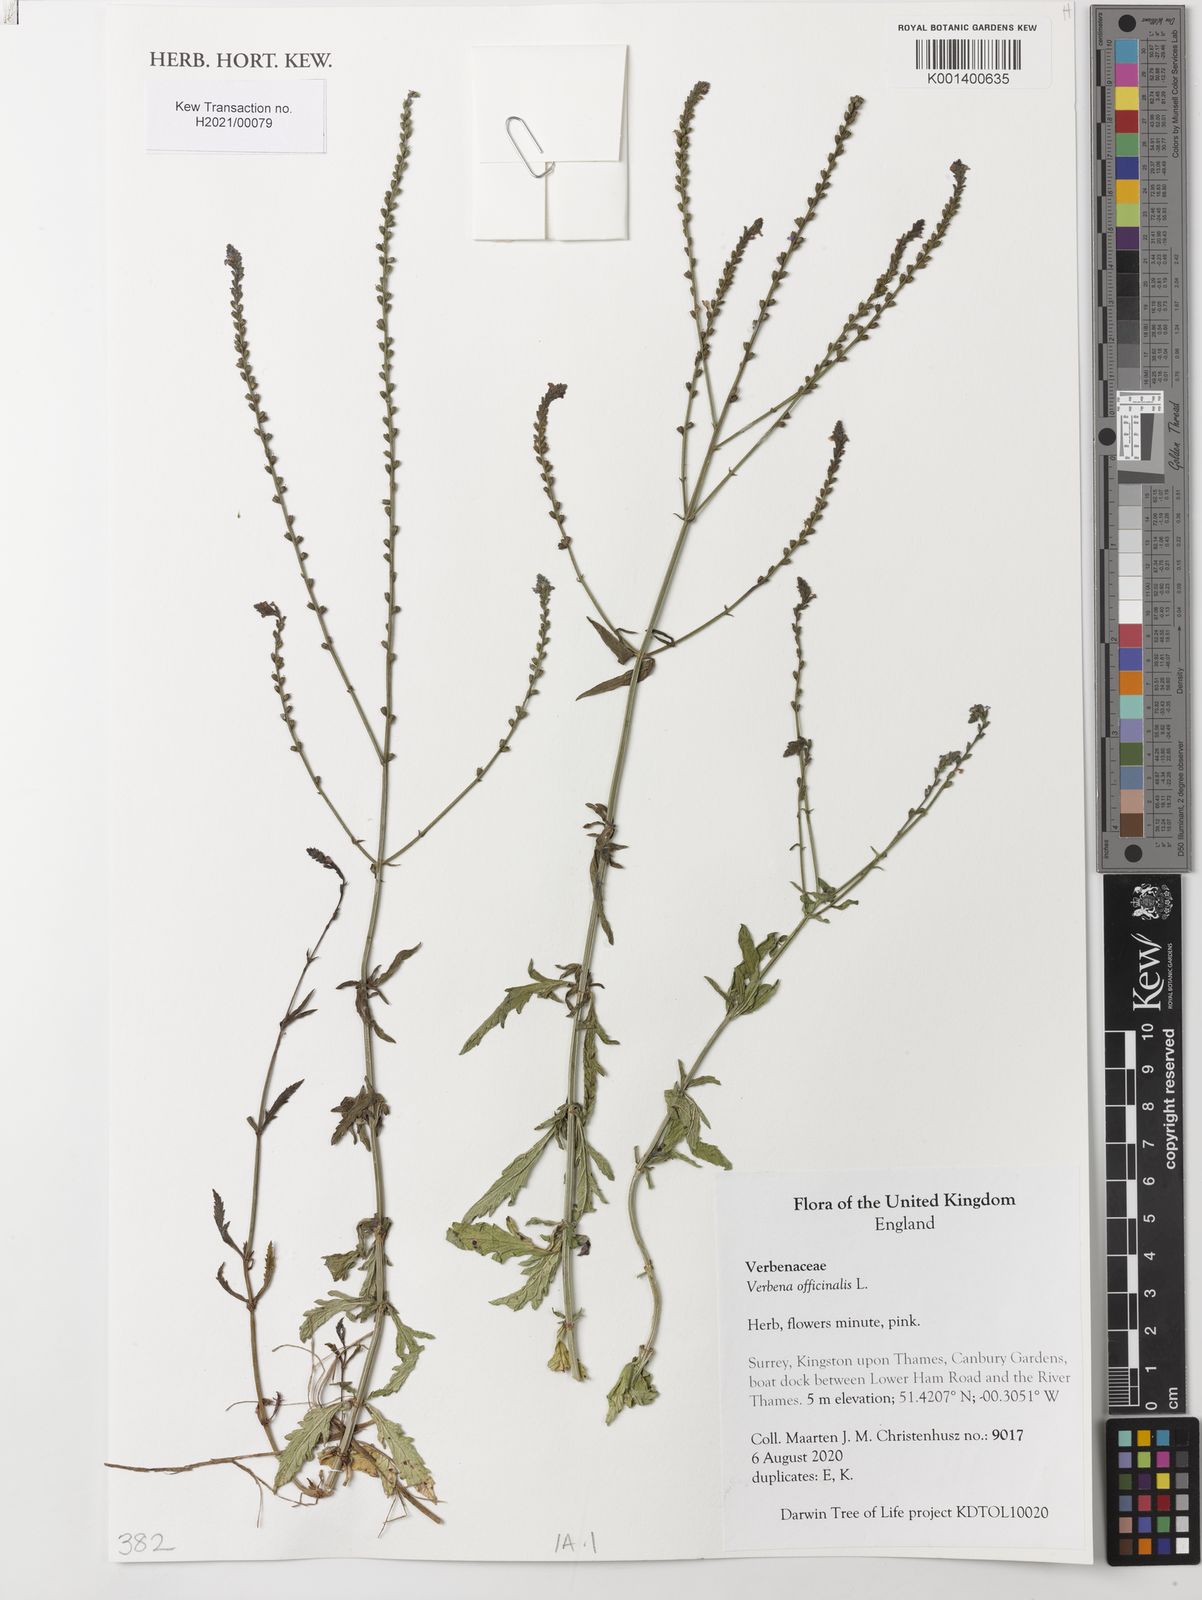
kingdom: Plantae
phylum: Tracheophyta
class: Magnoliopsida
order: Lamiales
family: Verbenaceae
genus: Verbena
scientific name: Verbena officinalis
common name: Vervain
